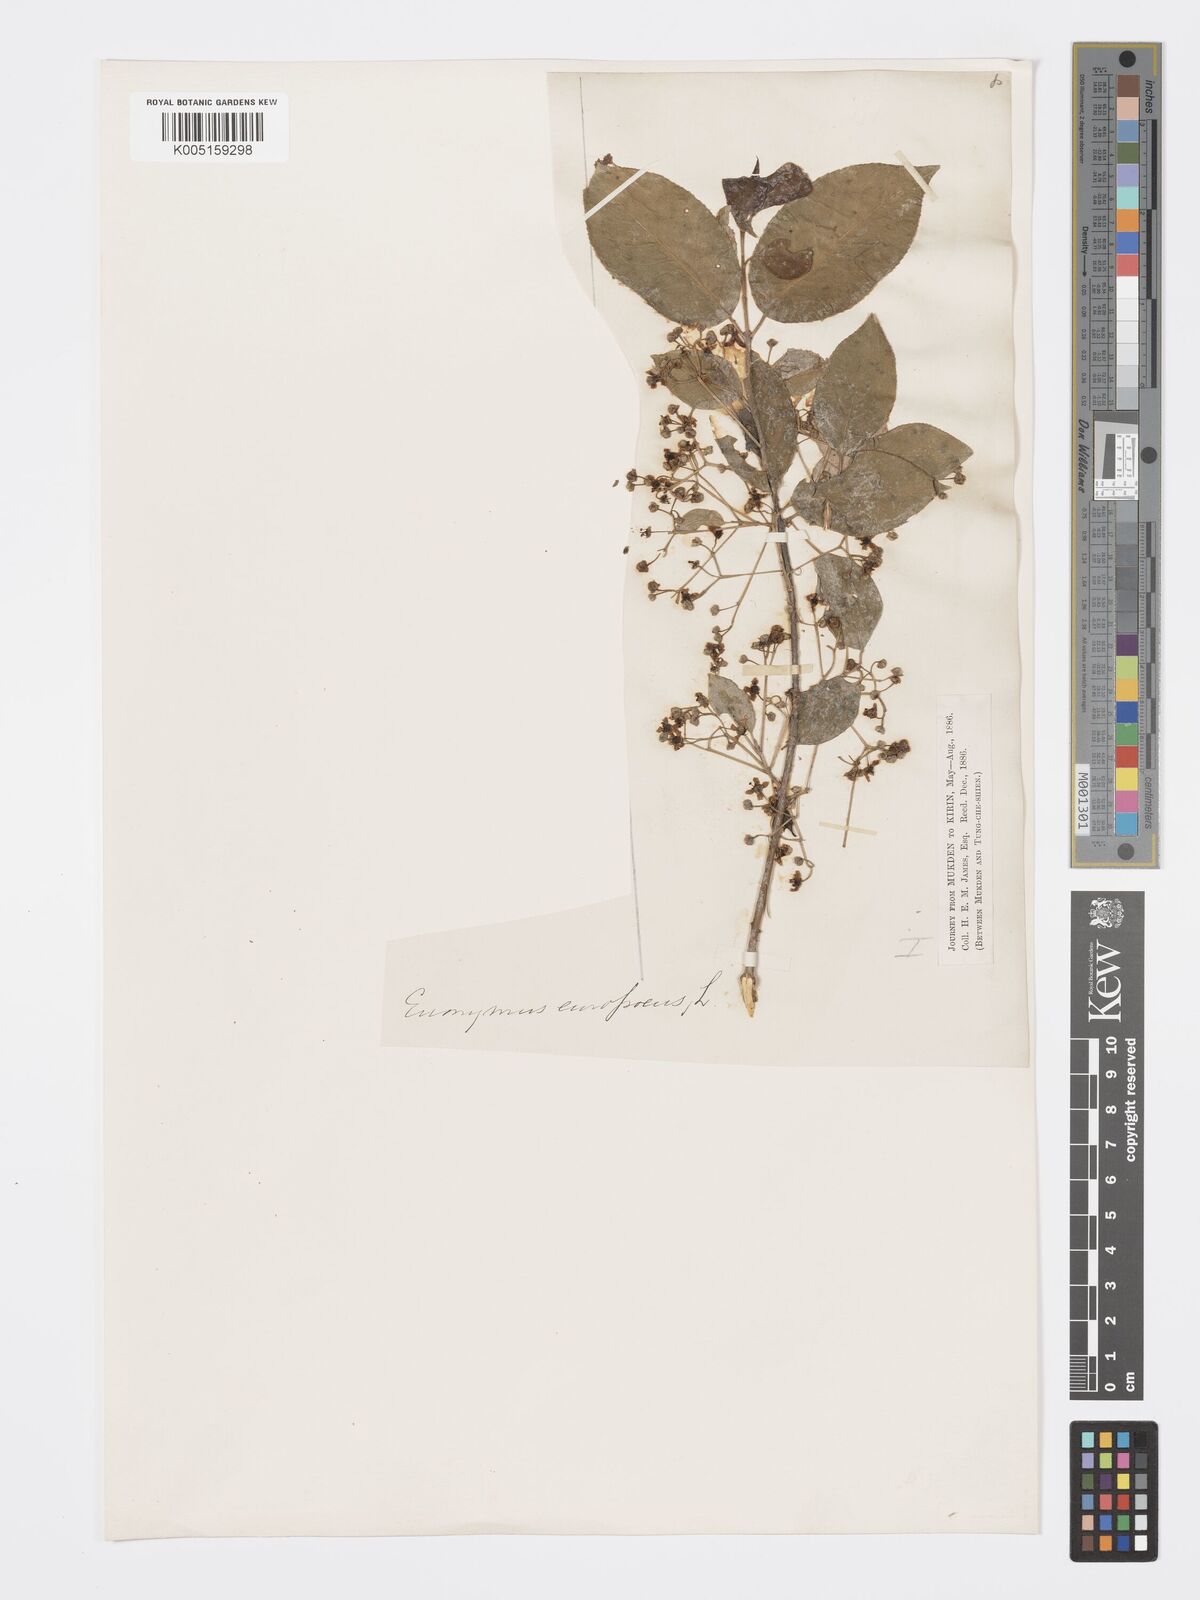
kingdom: Plantae
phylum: Tracheophyta
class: Magnoliopsida
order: Celastrales
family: Celastraceae
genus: Euonymus
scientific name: Euonymus maackii
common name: Hamilton's spindletree
